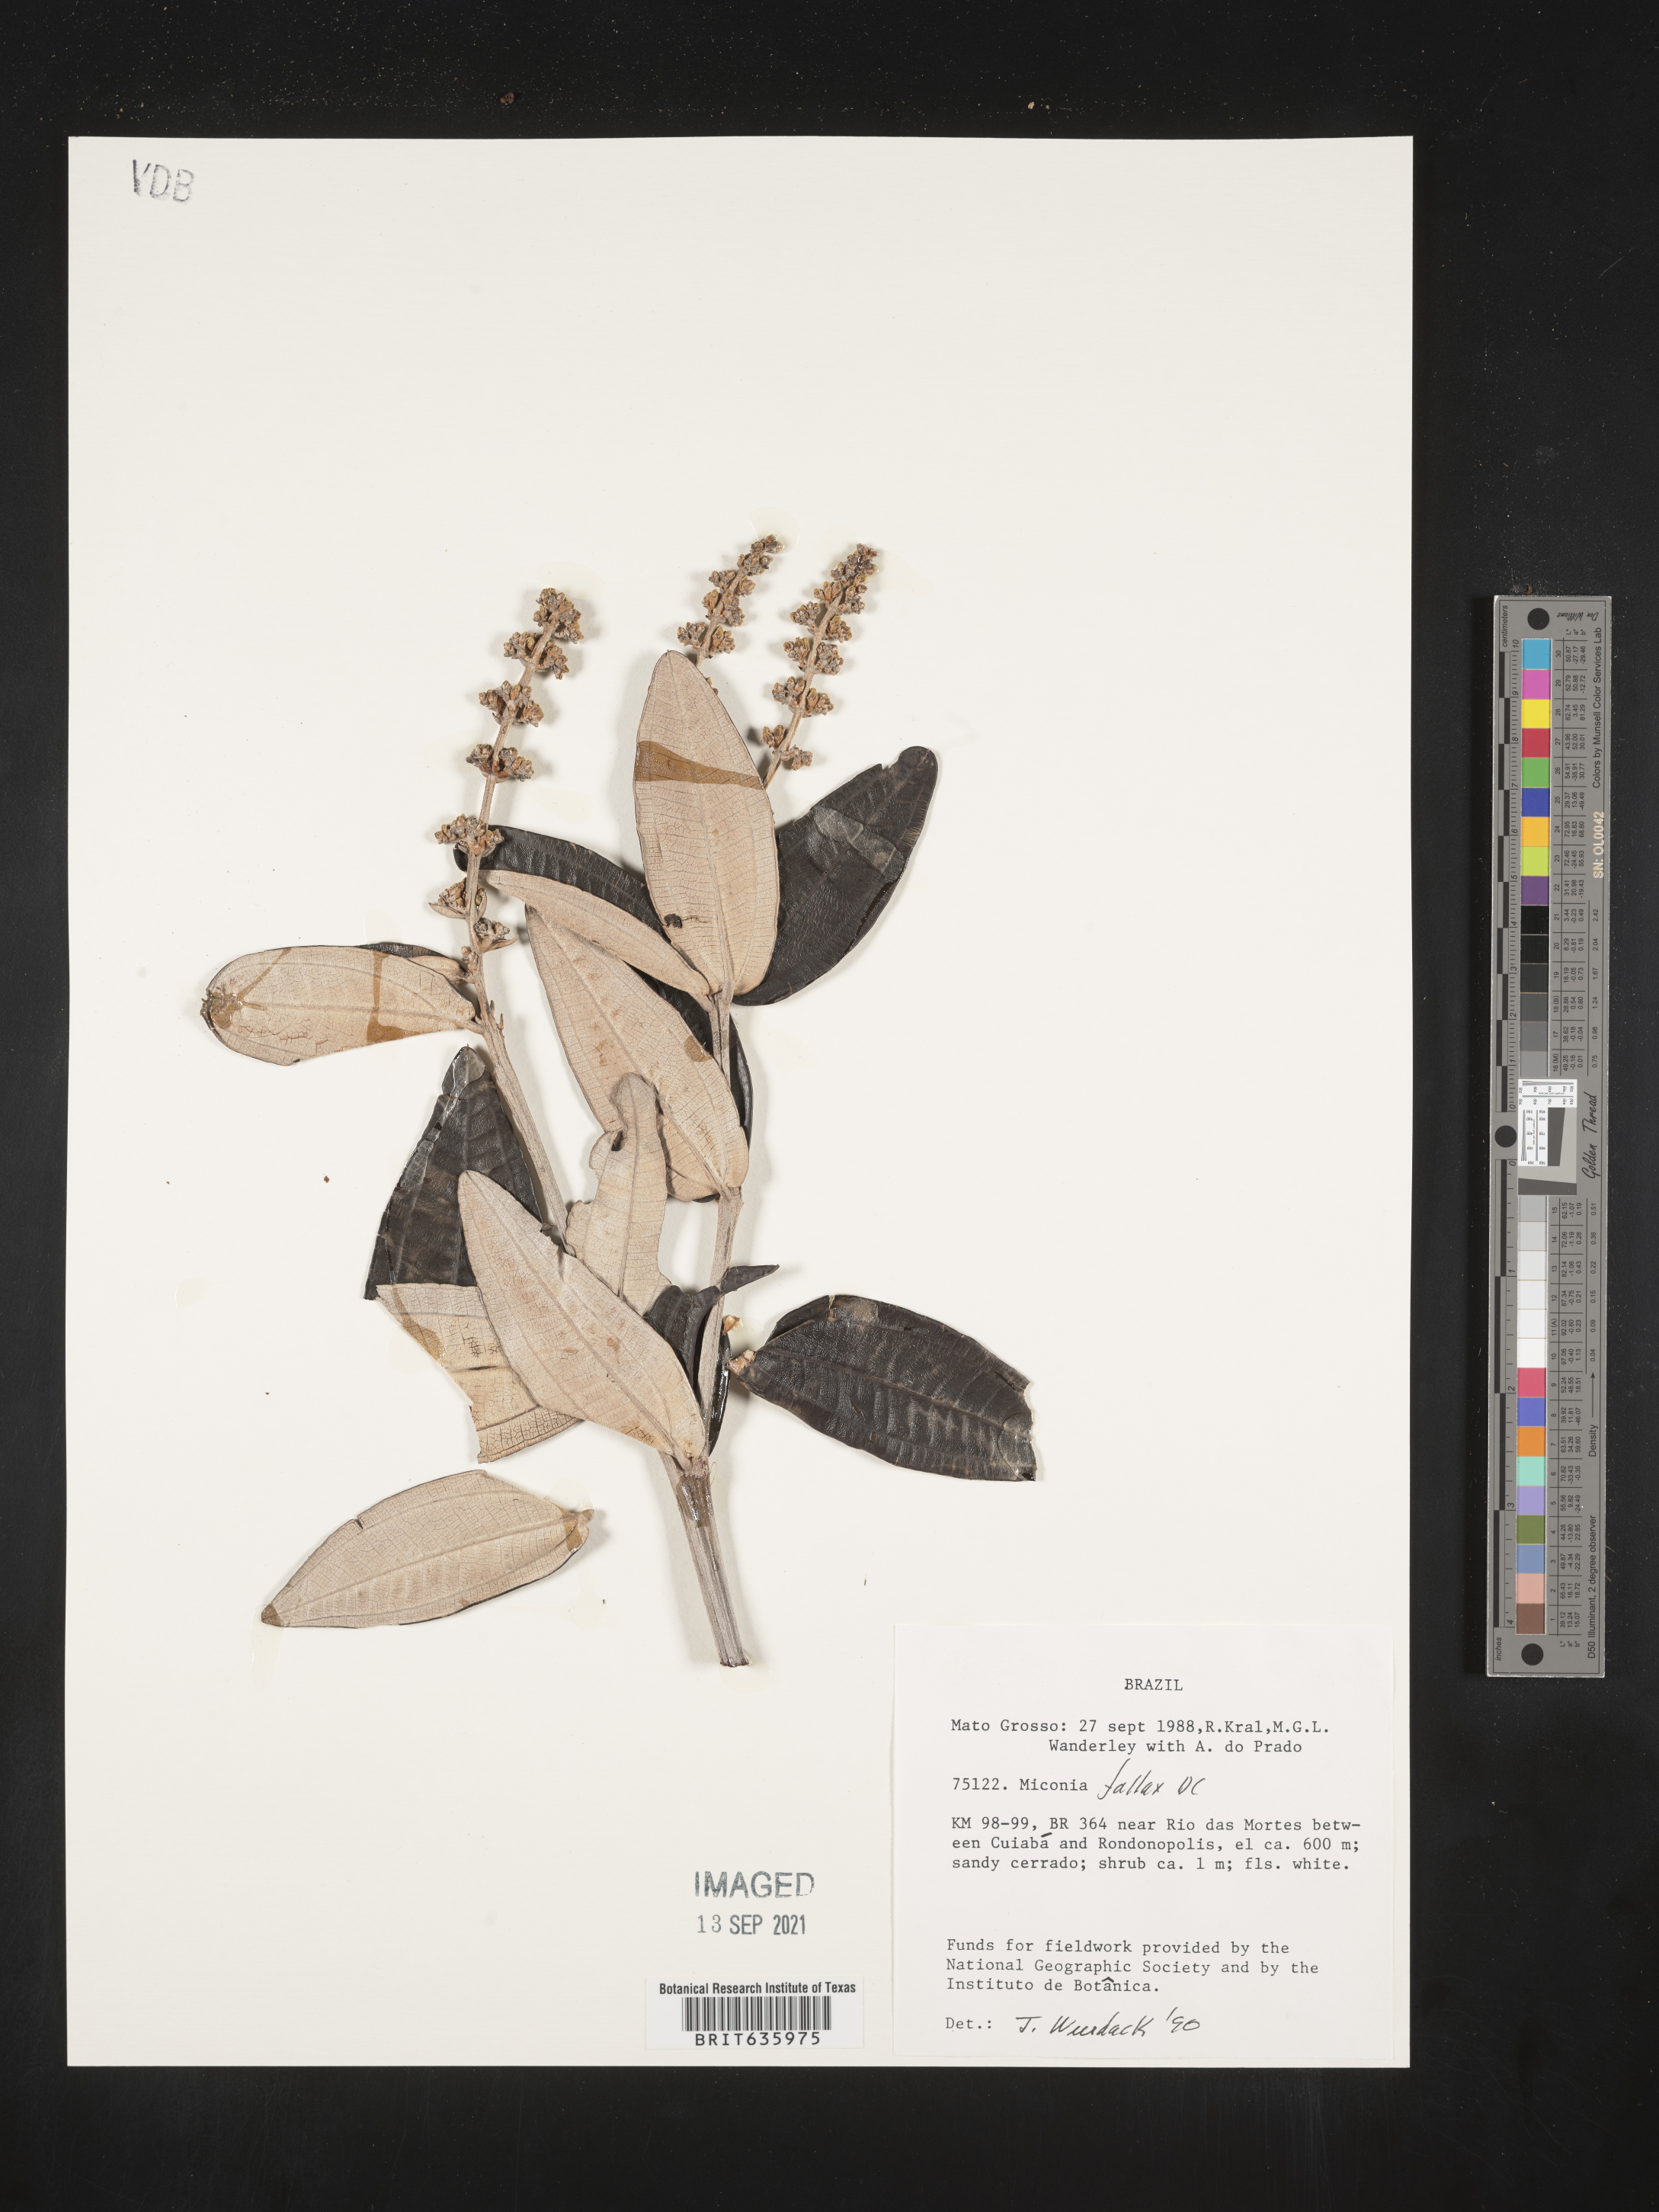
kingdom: Plantae
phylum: Tracheophyta
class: Magnoliopsida
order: Myrtales
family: Melastomataceae
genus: Miconia
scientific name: Miconia
